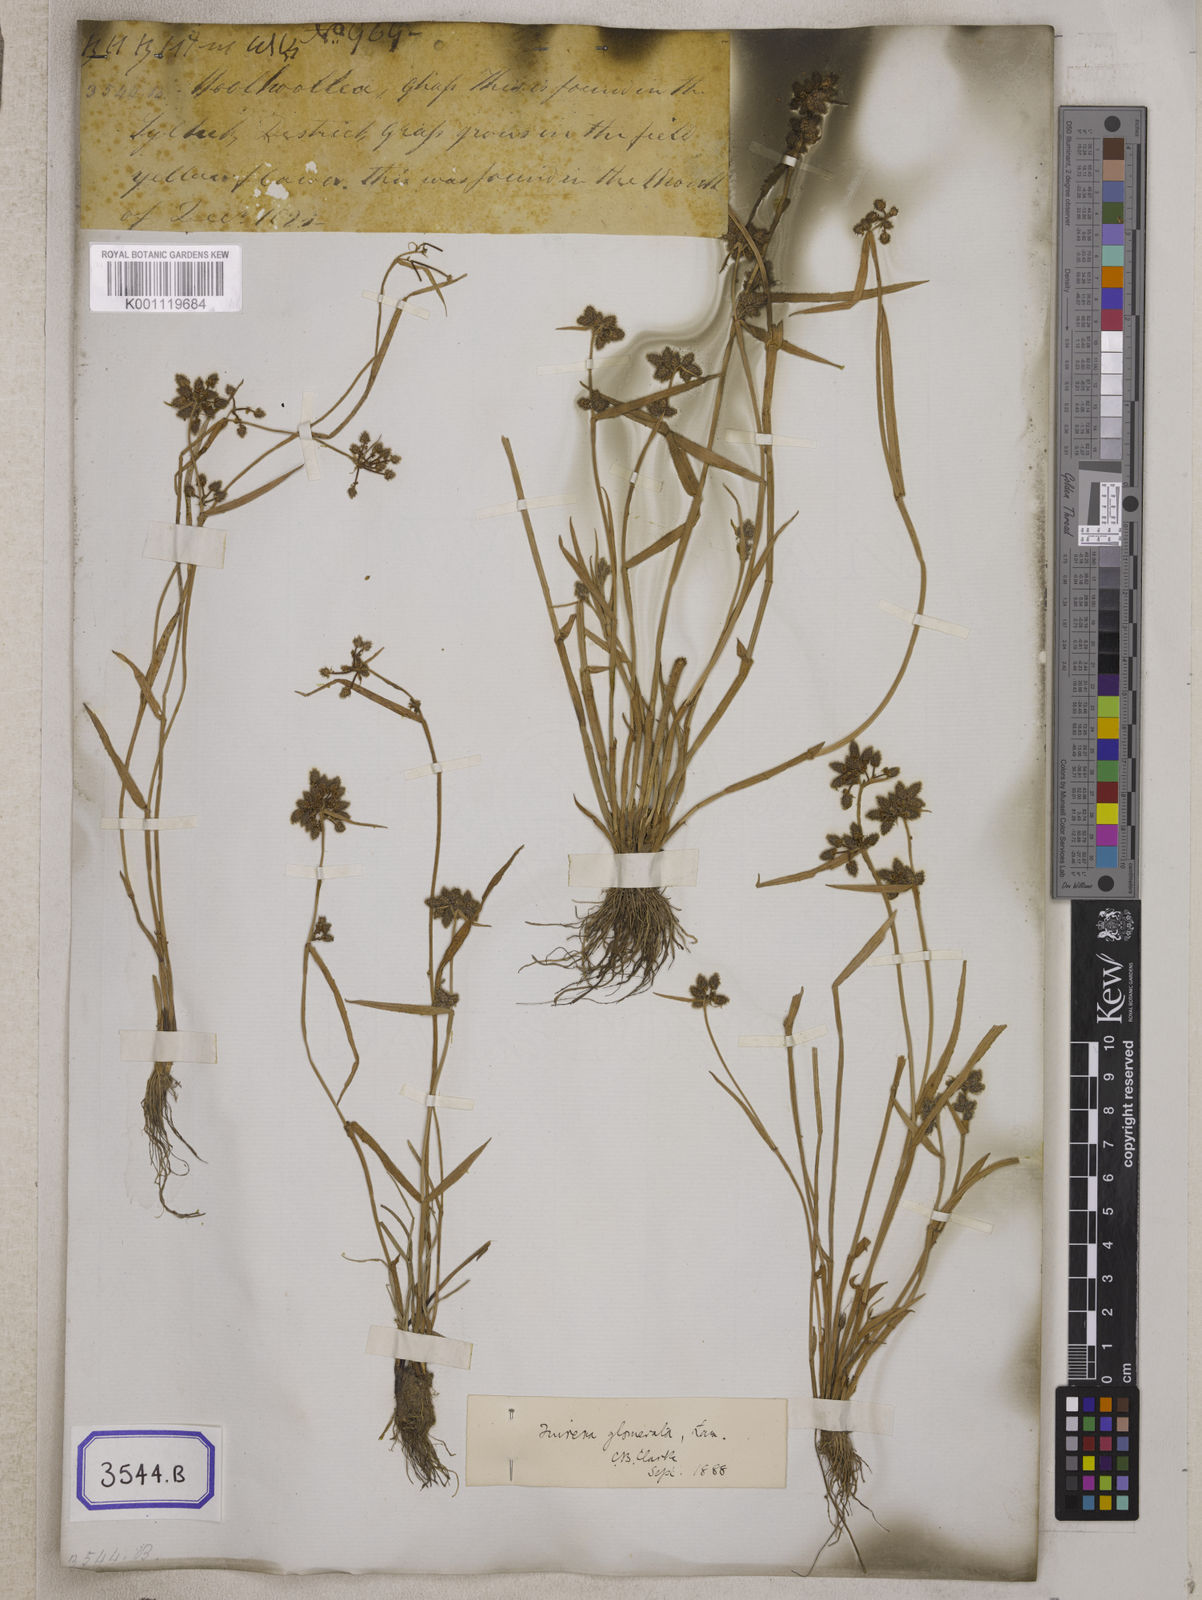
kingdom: Plantae
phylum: Tracheophyta
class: Liliopsida
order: Poales
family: Cyperaceae
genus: Fuirena
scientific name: Fuirena
